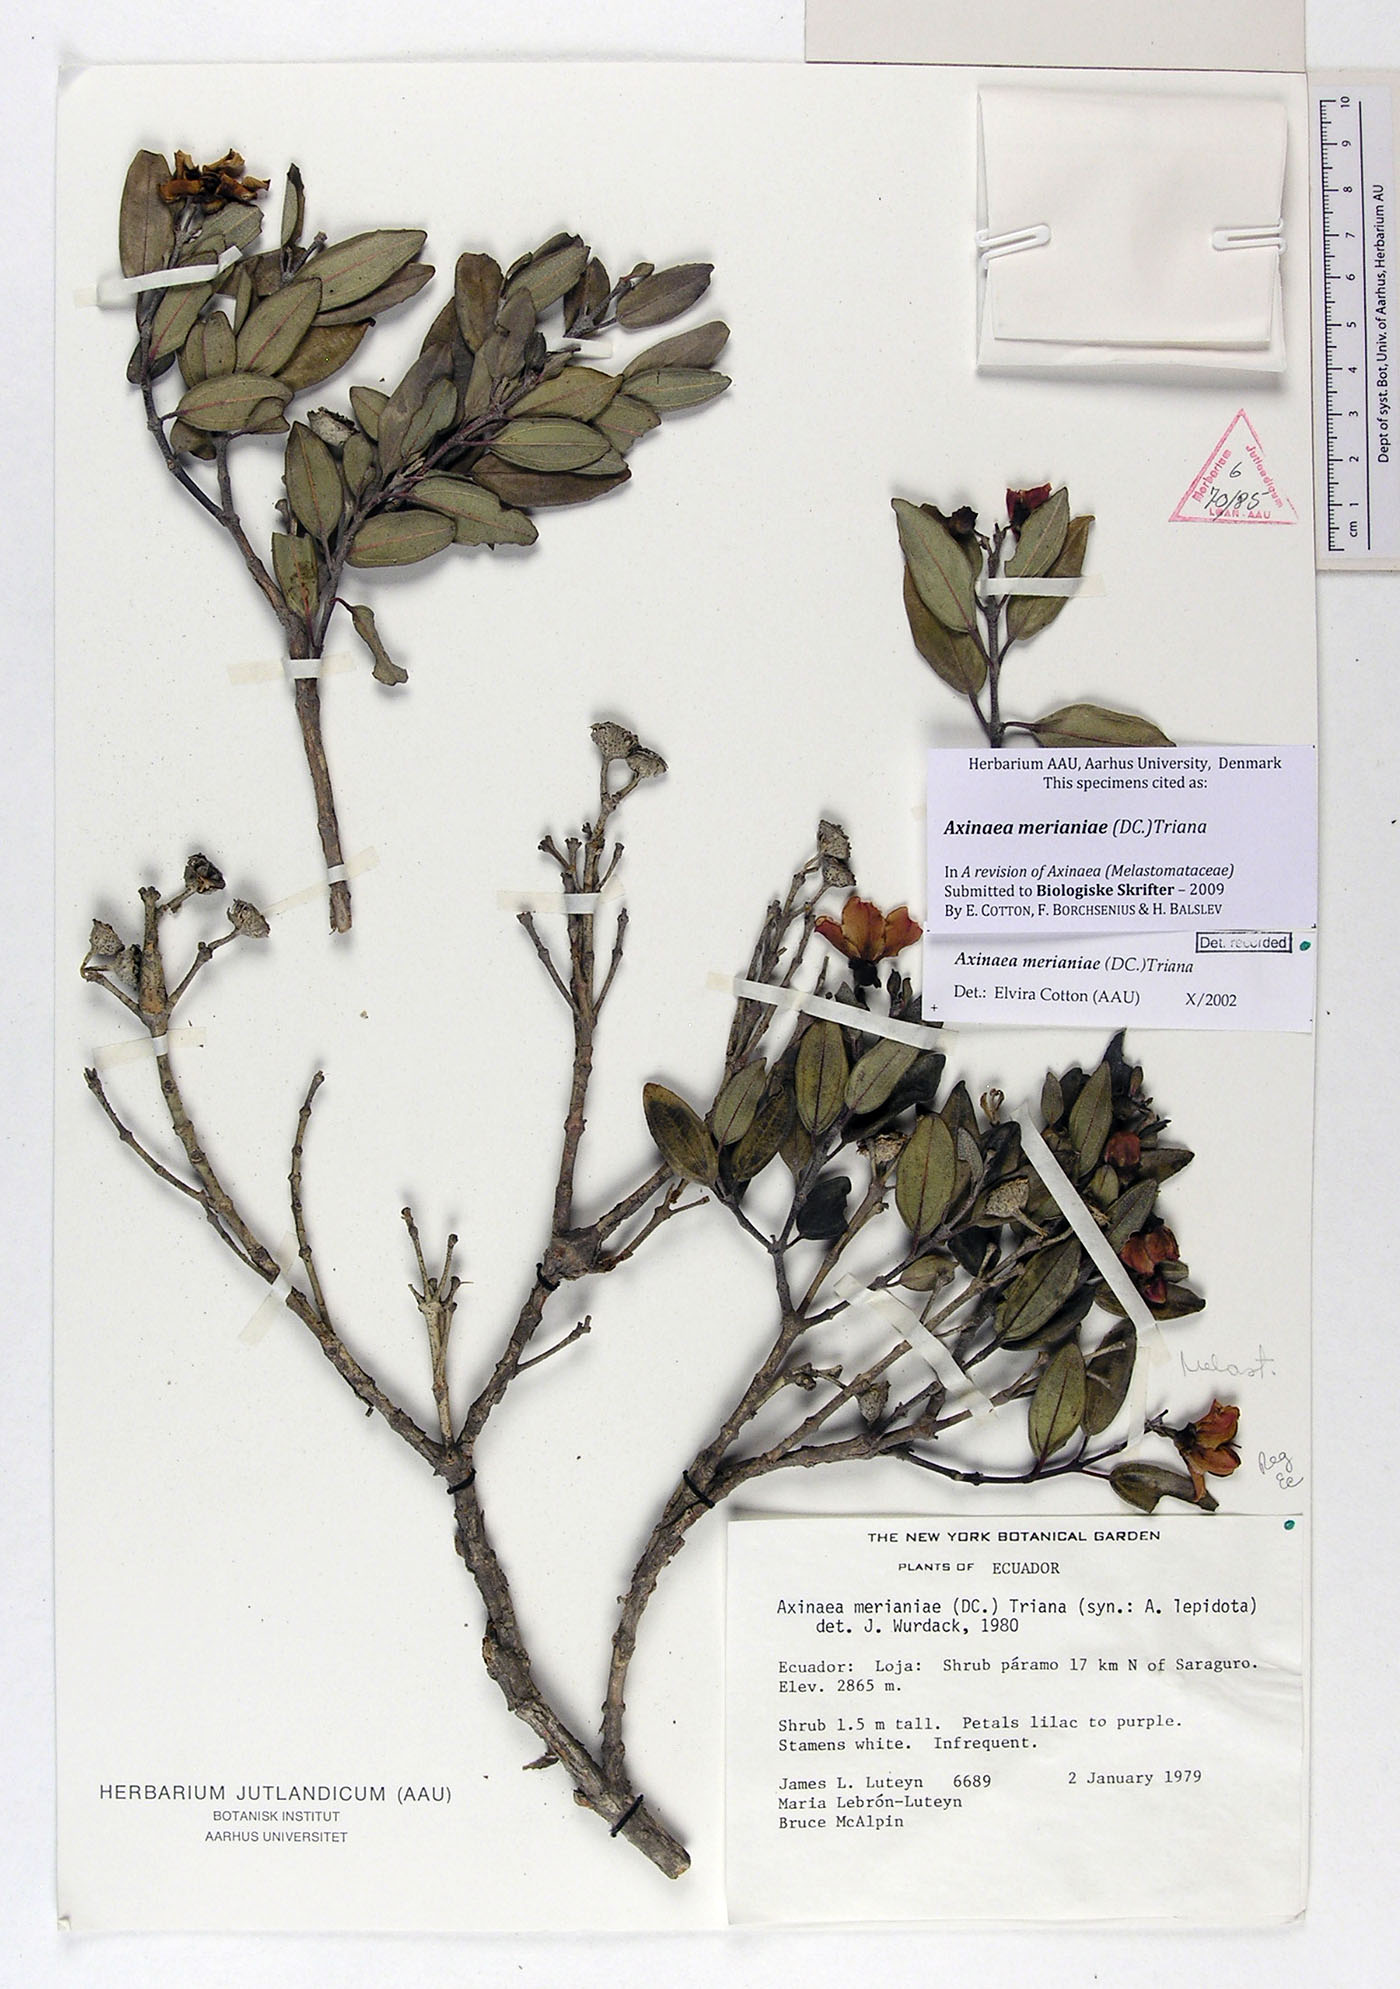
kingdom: Plantae
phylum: Tracheophyta
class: Magnoliopsida
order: Myrtales
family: Melastomataceae
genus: Axinaea
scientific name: Axinaea merianiae
